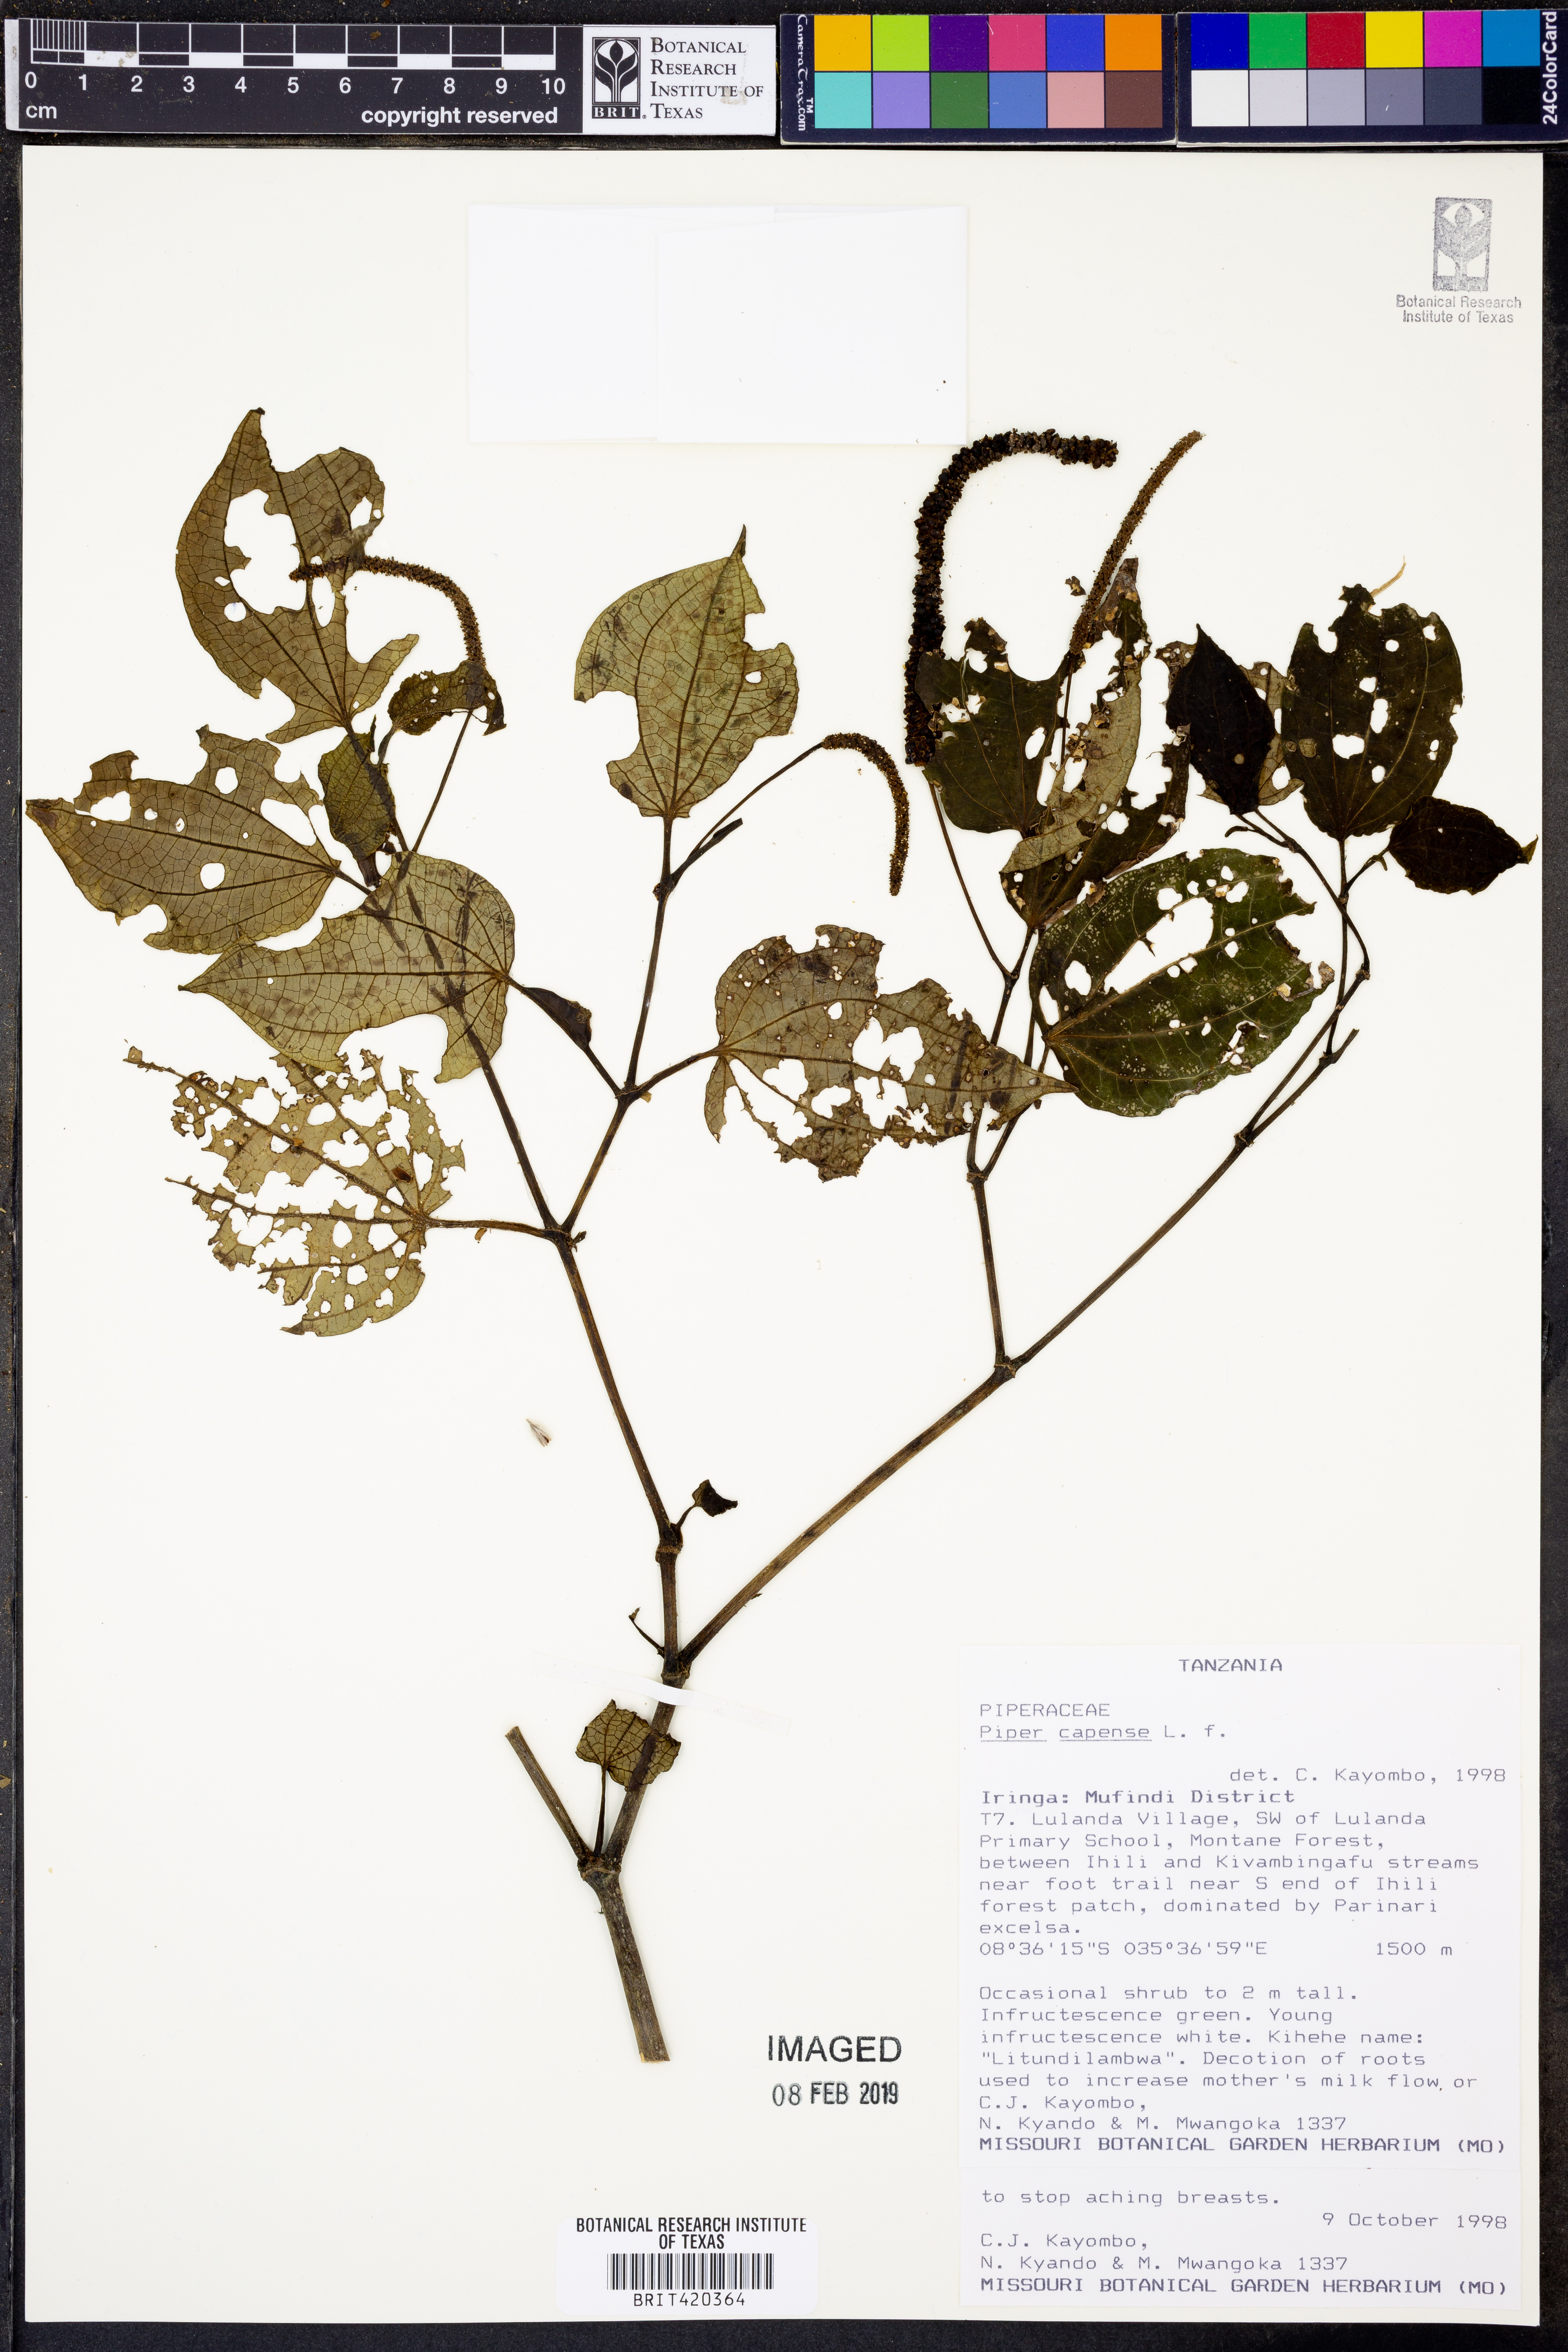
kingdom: Plantae
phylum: Tracheophyta
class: Magnoliopsida
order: Piperales
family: Piperaceae
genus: Piper
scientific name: Piper capense
